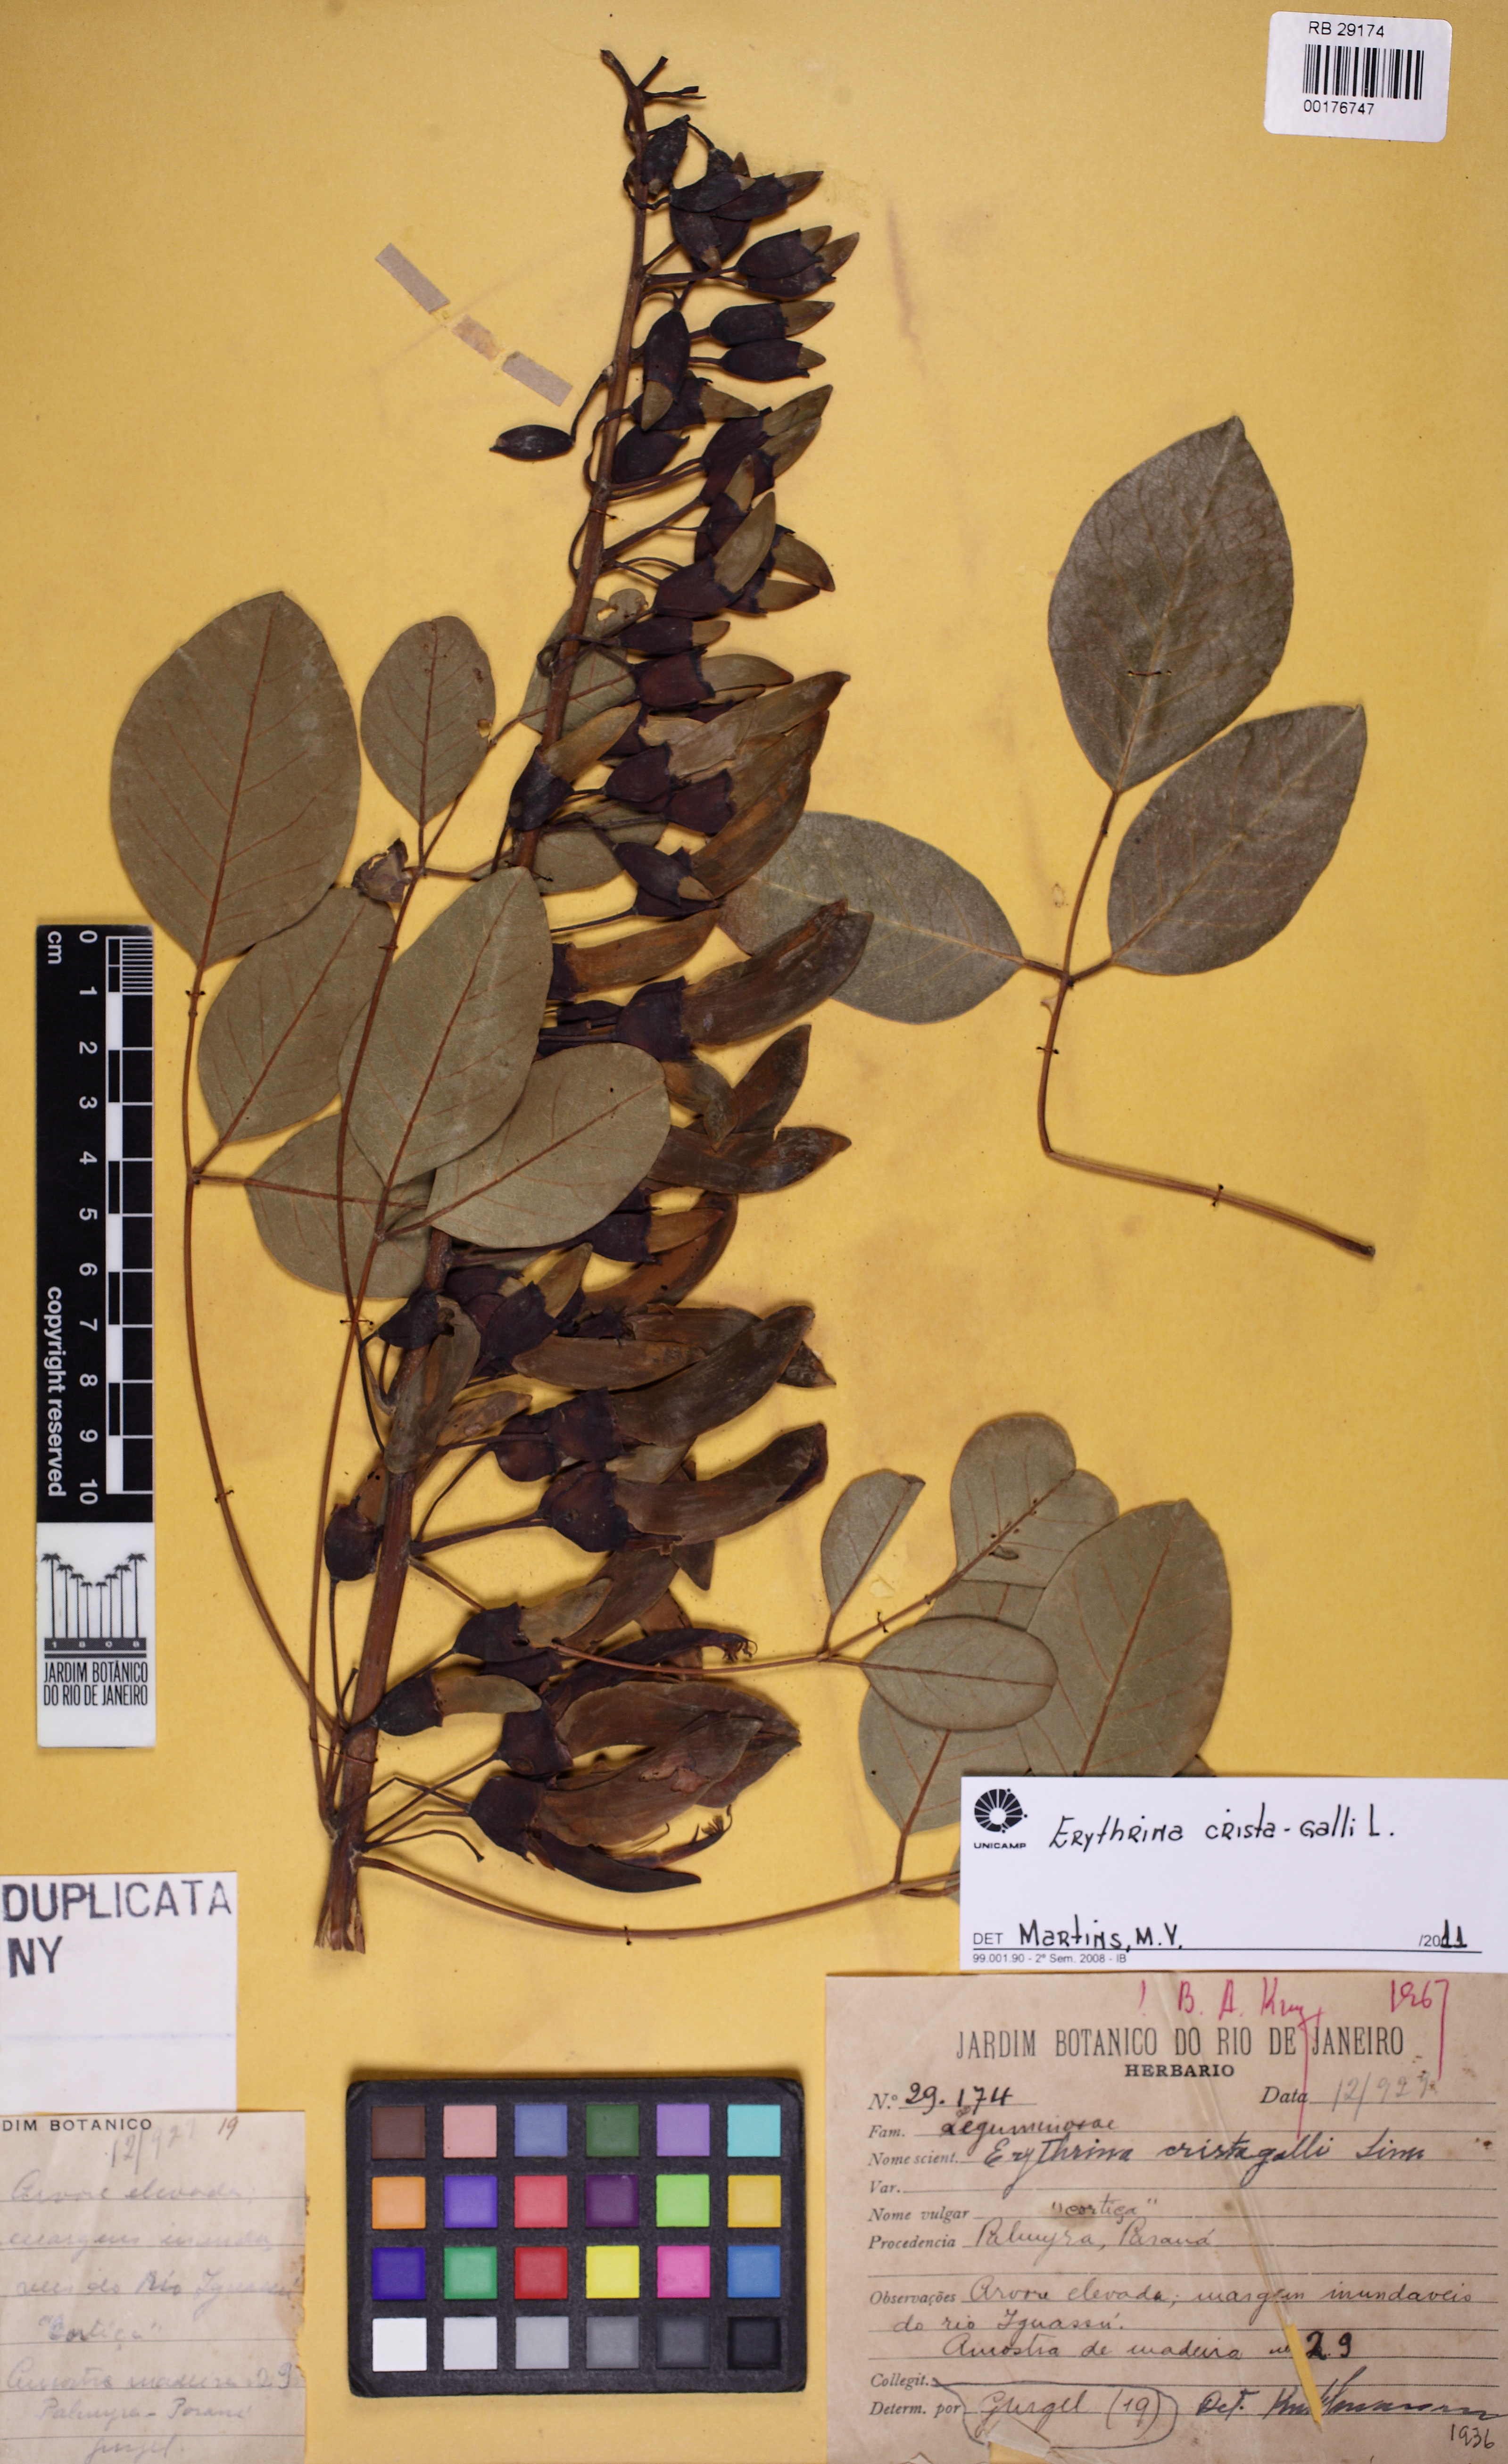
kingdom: Plantae
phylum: Tracheophyta
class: Magnoliopsida
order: Fabales
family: Fabaceae
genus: Erythrina
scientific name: Erythrina crista-galli
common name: Cockspur coral tree
